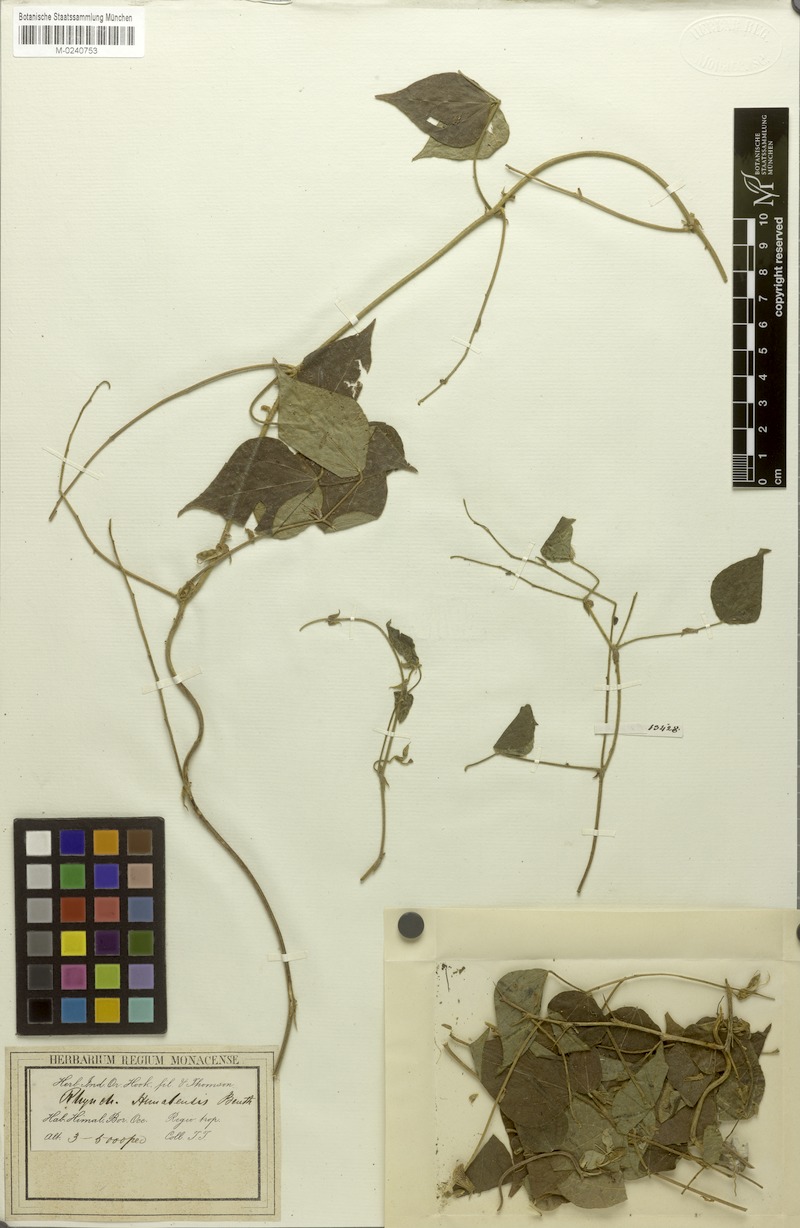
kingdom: Plantae
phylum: Tracheophyta
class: Magnoliopsida
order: Fabales
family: Fabaceae
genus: Rhynchosia
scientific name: Rhynchosia himalensis
